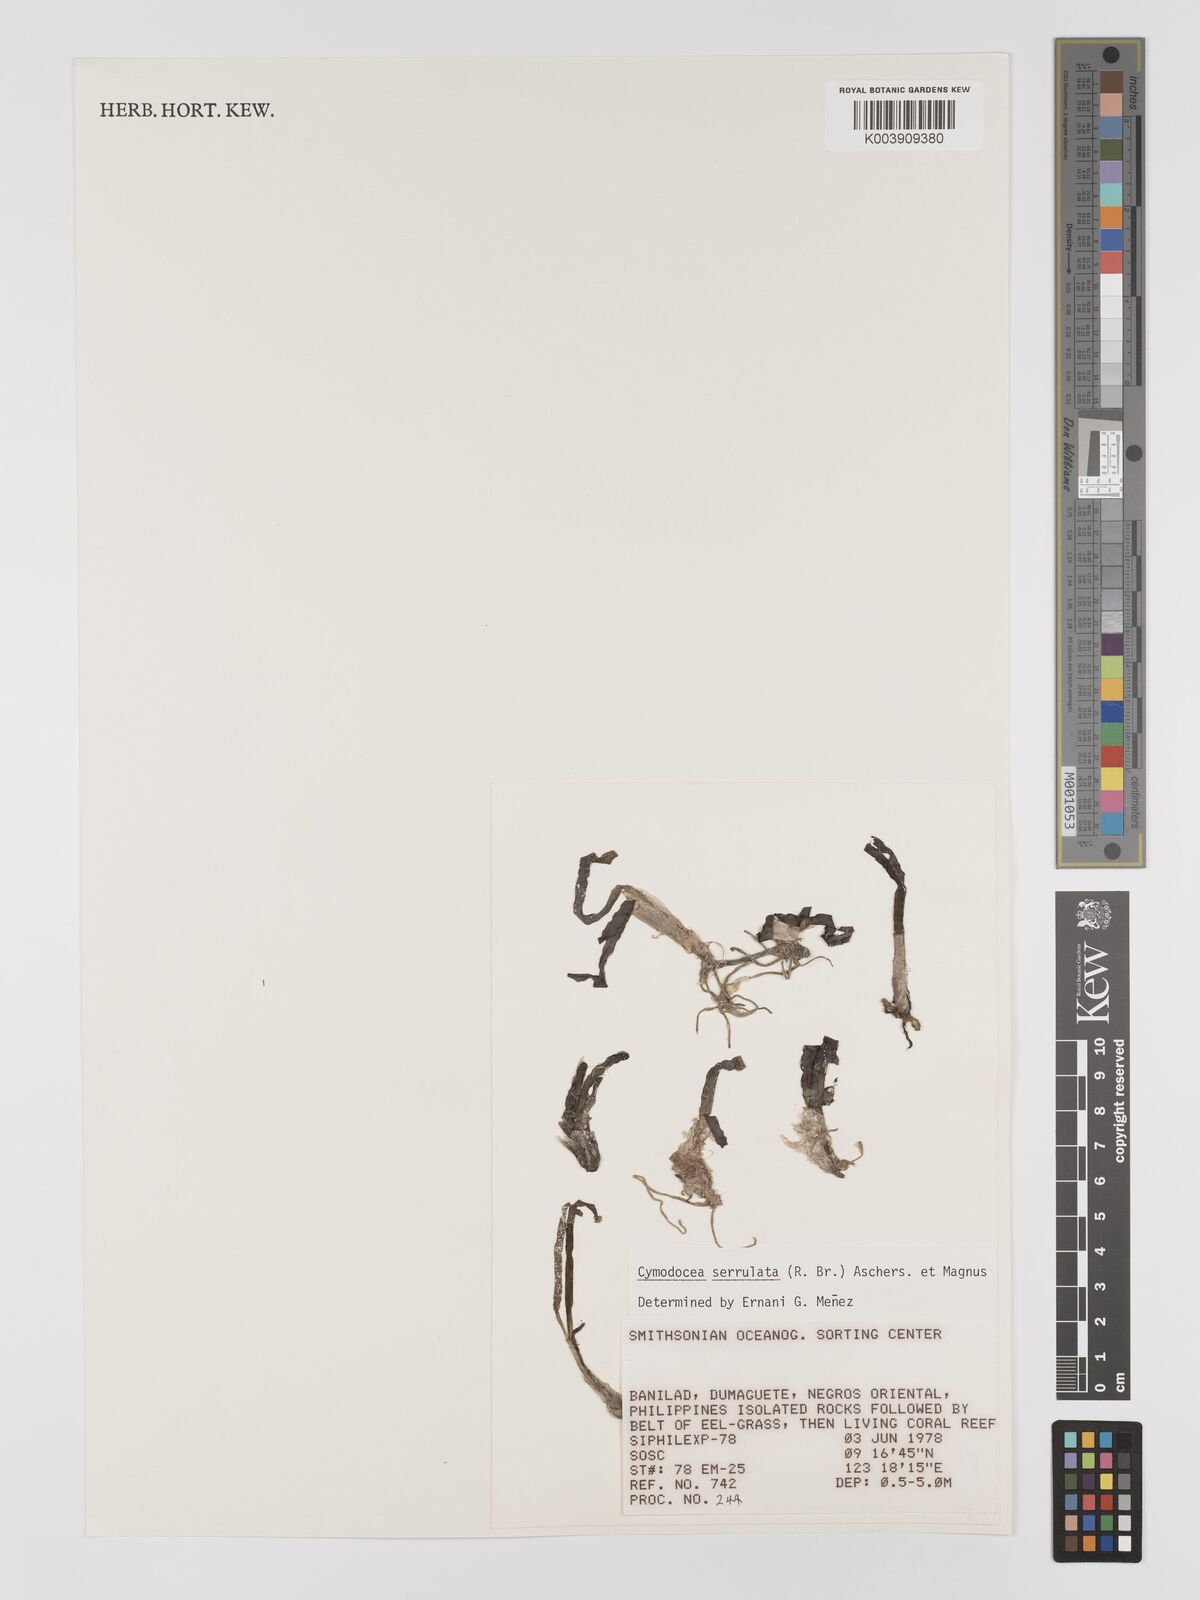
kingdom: Plantae
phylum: Tracheophyta
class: Liliopsida
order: Alismatales
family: Cymodoceaceae
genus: Oceana
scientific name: Oceana serrulata
